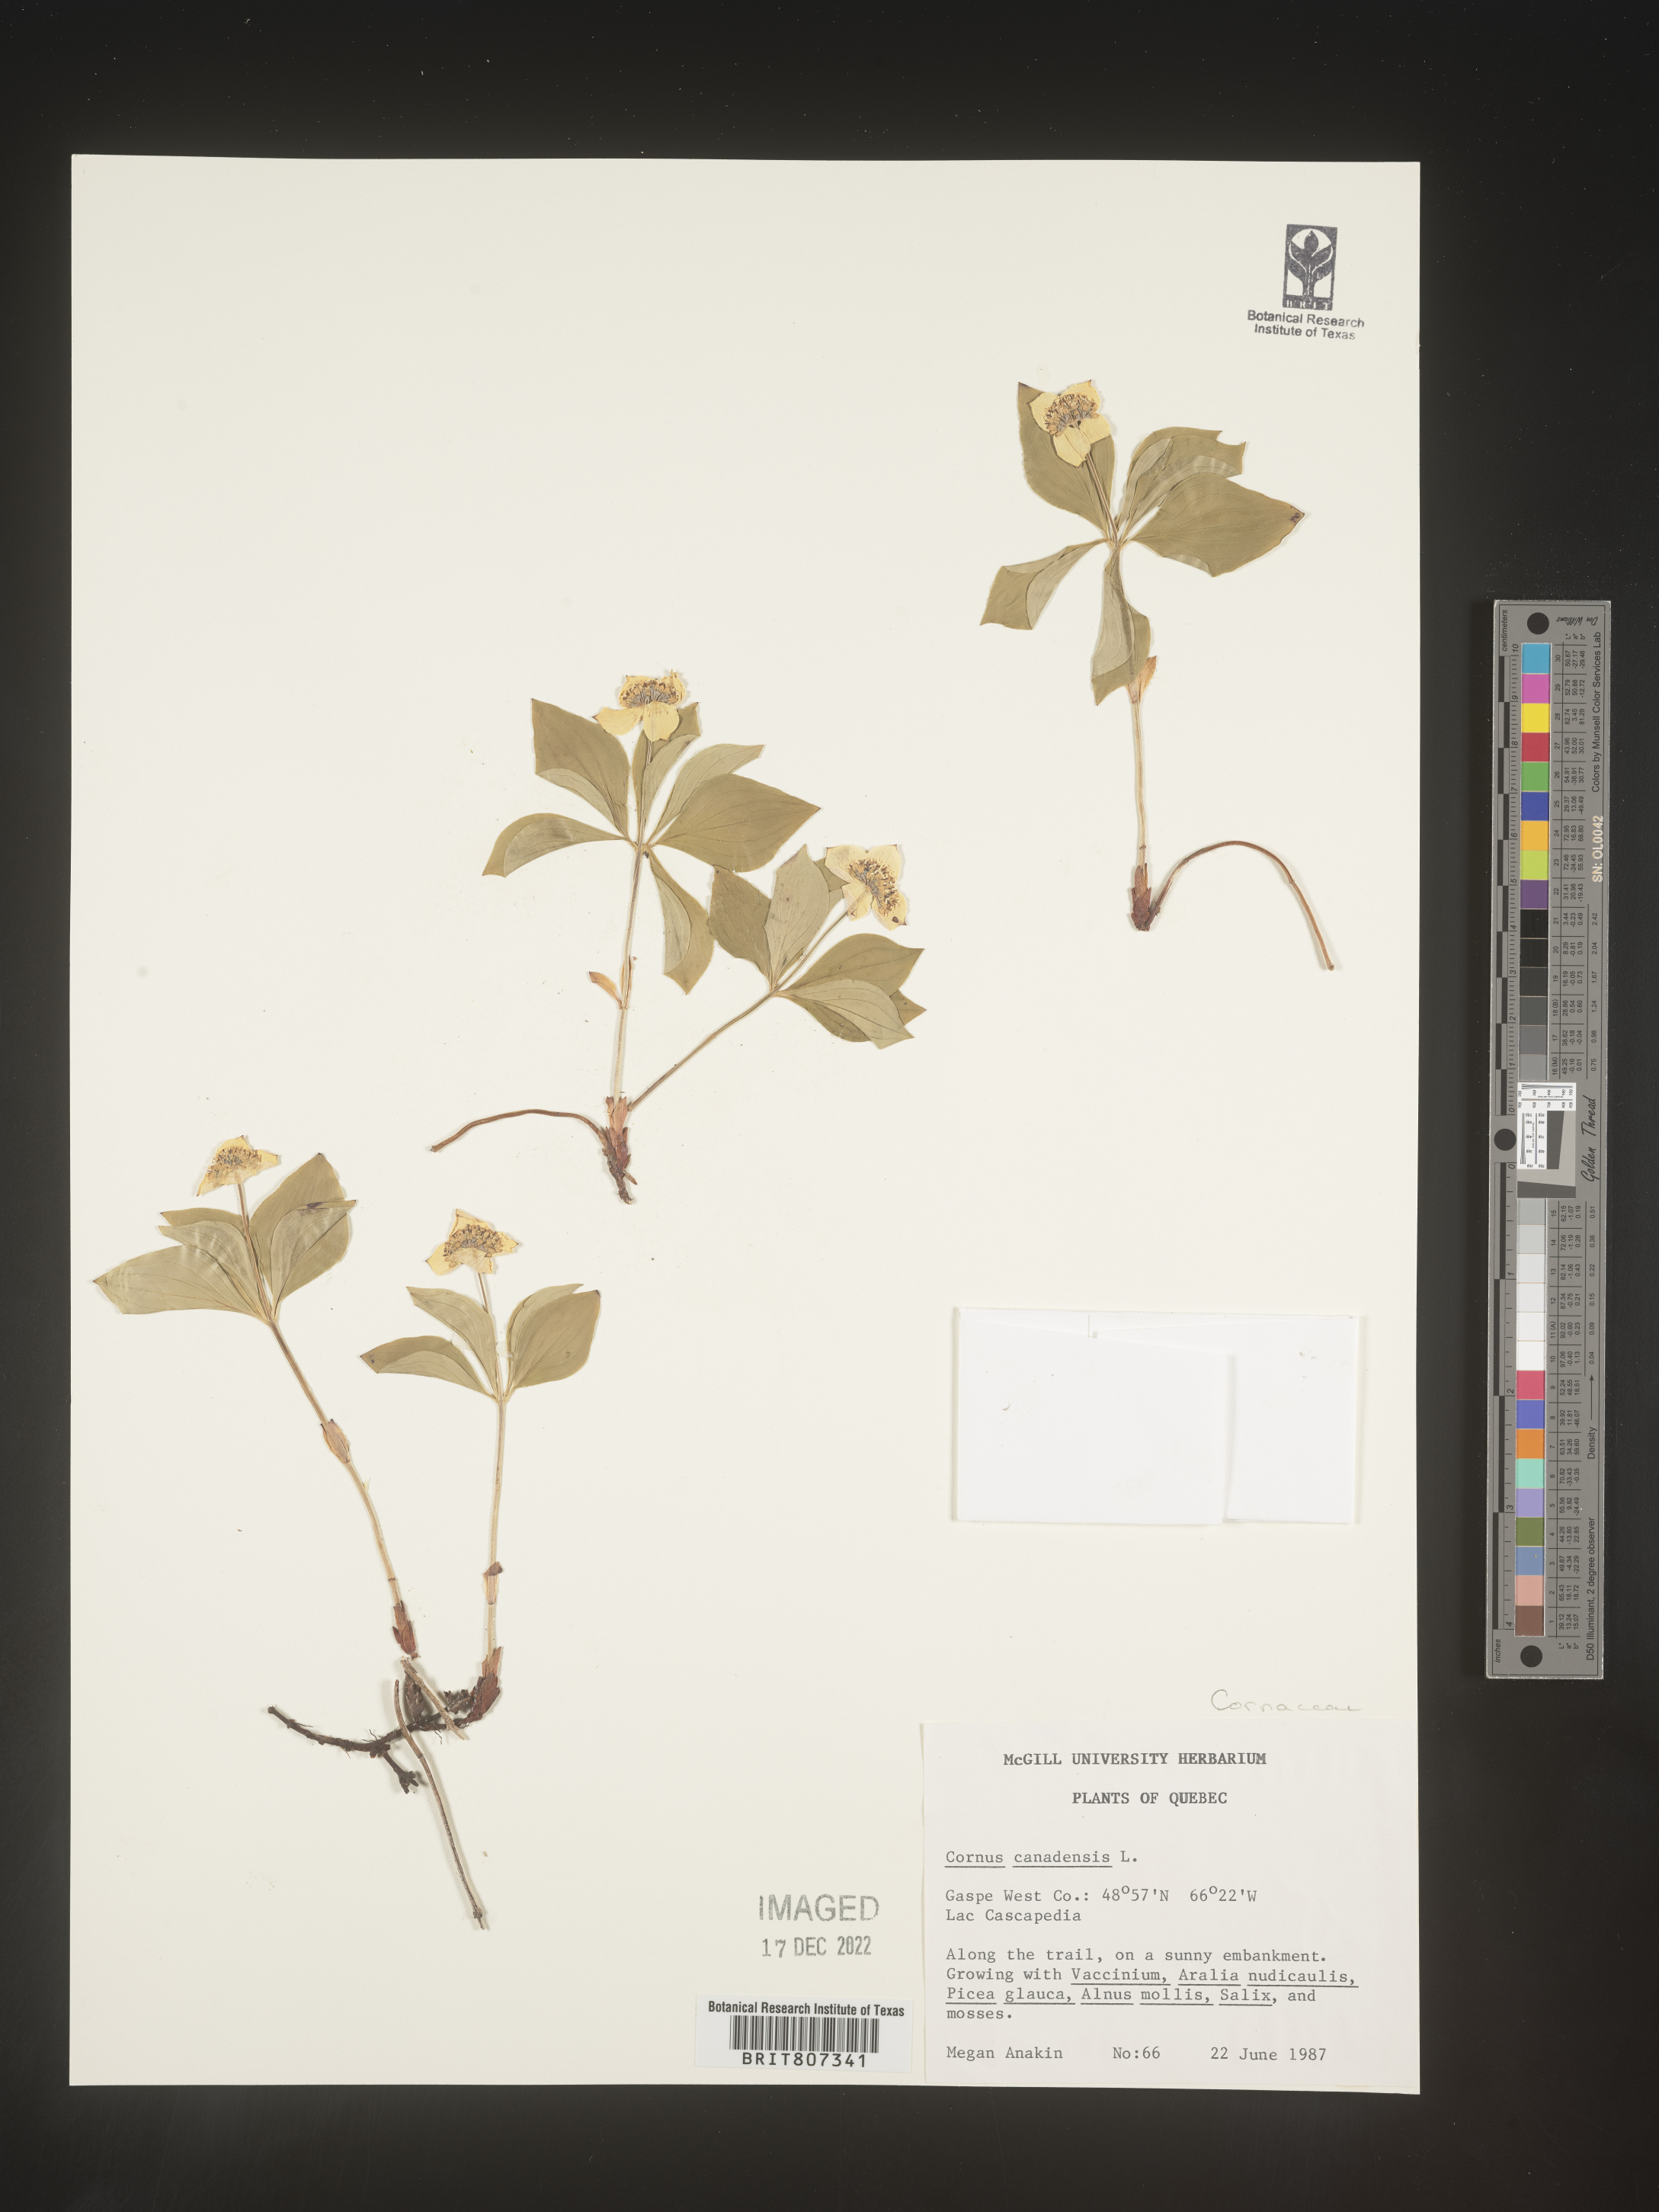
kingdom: Plantae
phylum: Tracheophyta
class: Magnoliopsida
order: Cornales
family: Cornaceae
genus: Cornus
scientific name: Cornus canadensis
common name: Creeping dogwood
